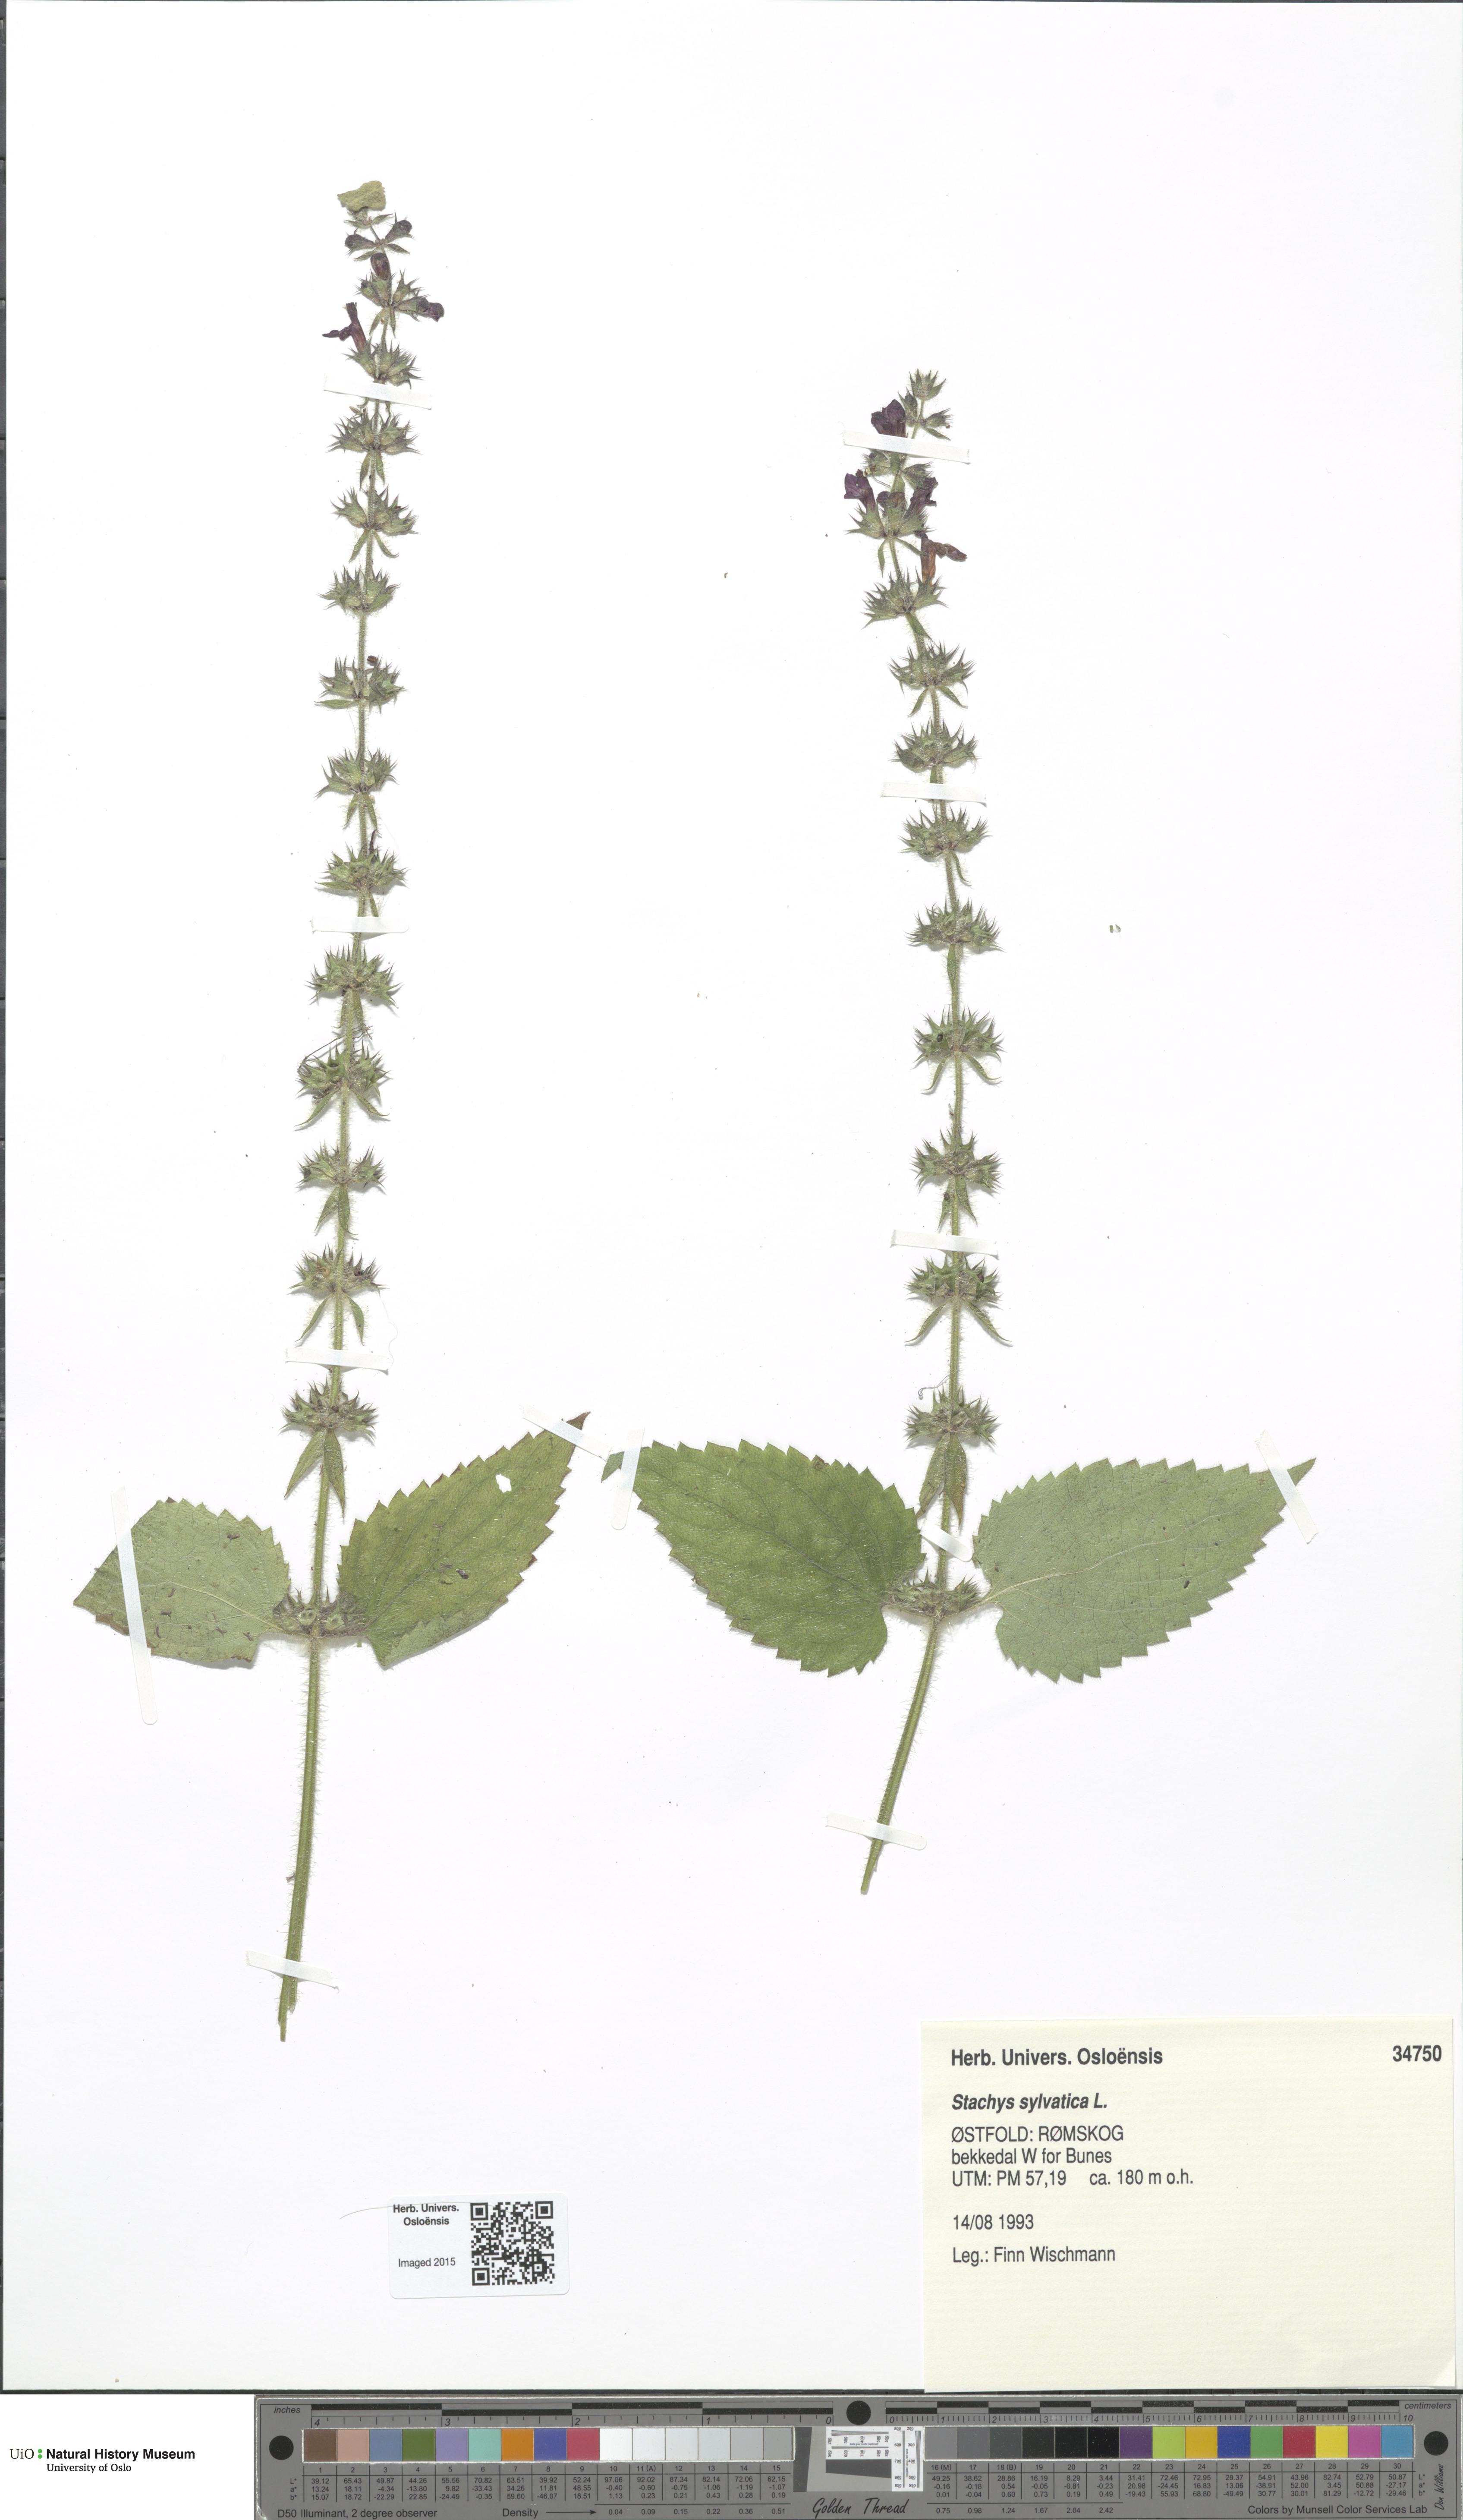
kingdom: Plantae
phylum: Tracheophyta
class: Magnoliopsida
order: Lamiales
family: Lamiaceae
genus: Stachys
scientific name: Stachys sylvatica
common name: Hedge woundwort
